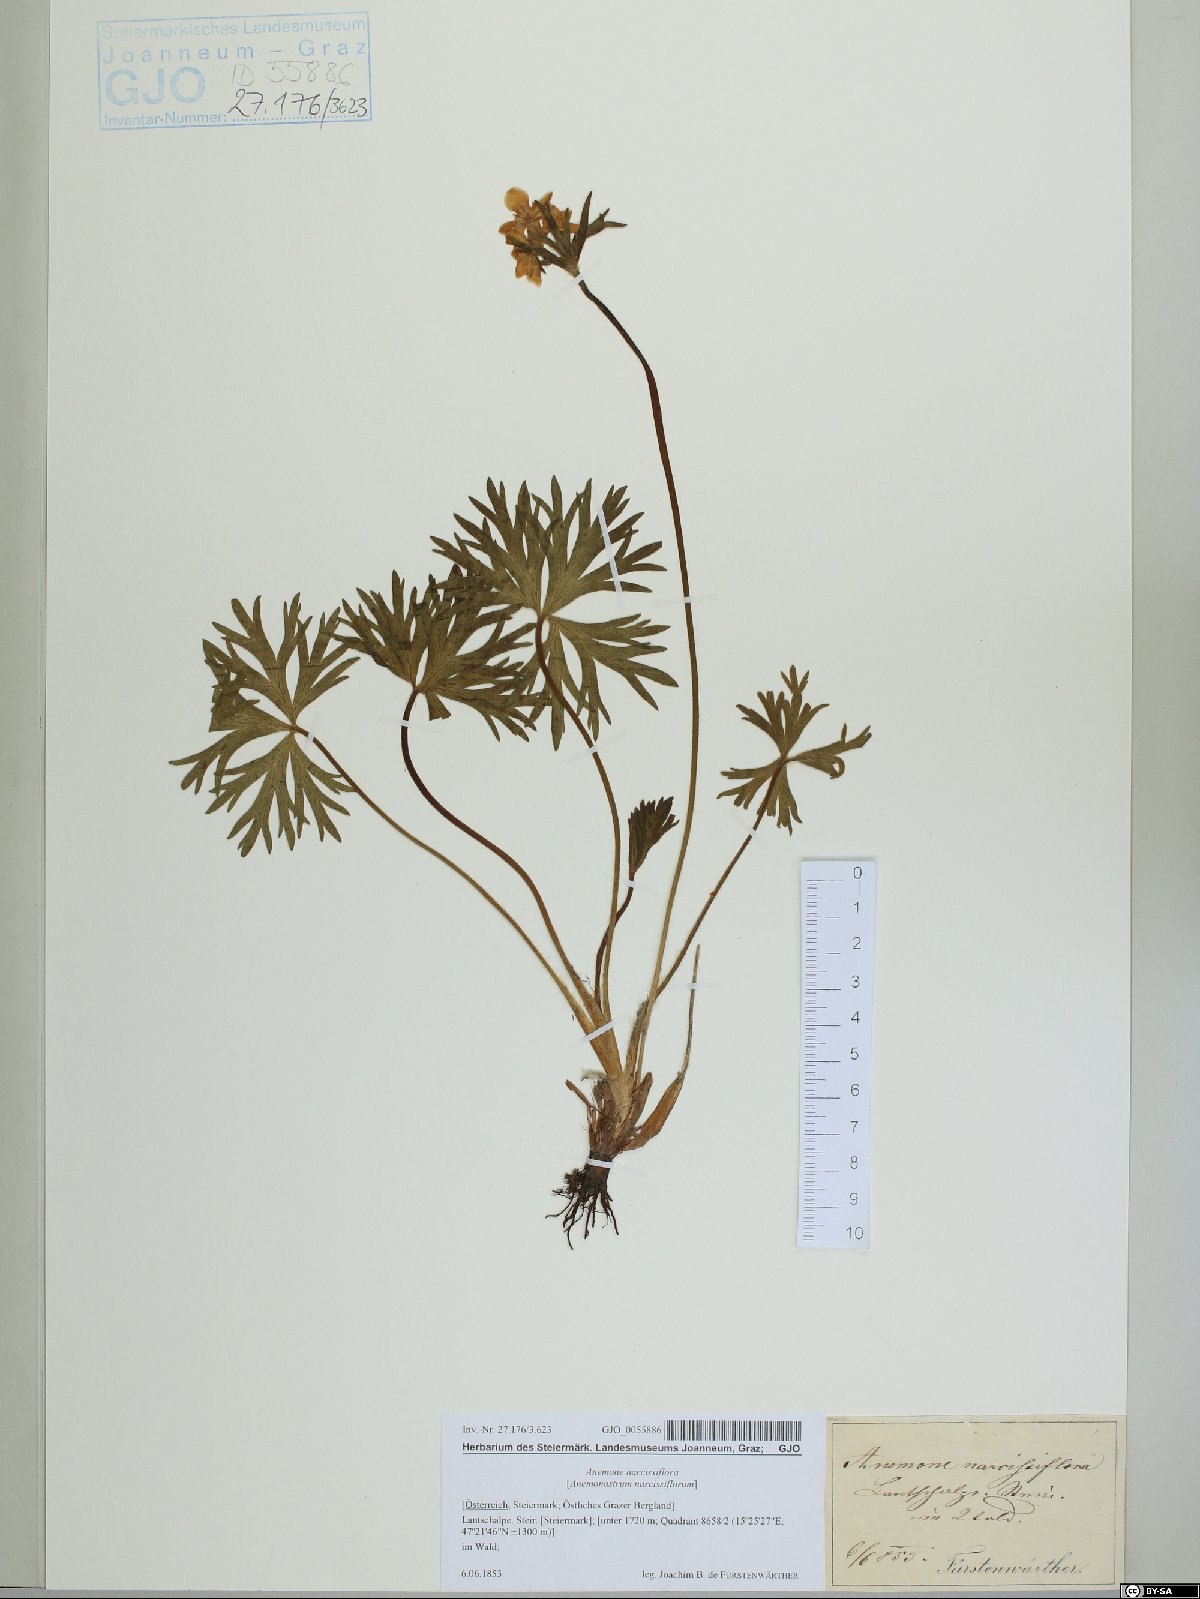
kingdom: Plantae
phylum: Tracheophyta
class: Magnoliopsida
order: Ranunculales
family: Ranunculaceae
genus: Anemonastrum
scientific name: Anemonastrum narcissiflorum
